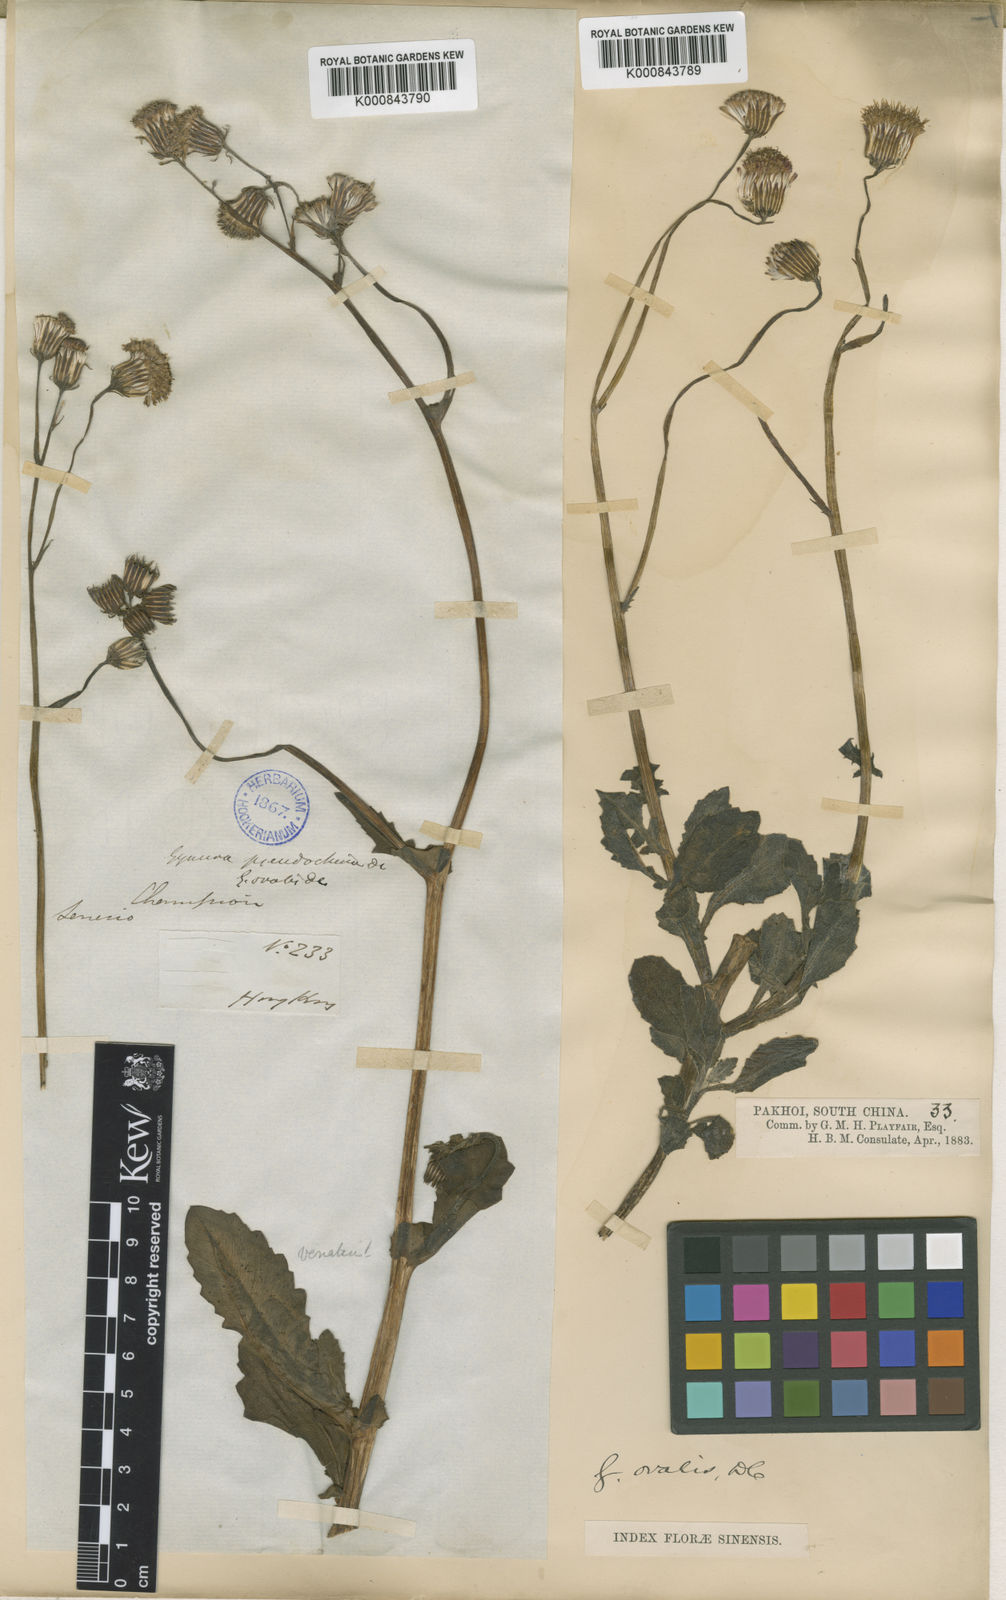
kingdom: Plantae
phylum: Tracheophyta
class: Magnoliopsida
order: Asterales
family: Asteraceae
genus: Gynura
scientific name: Gynura divaricata
